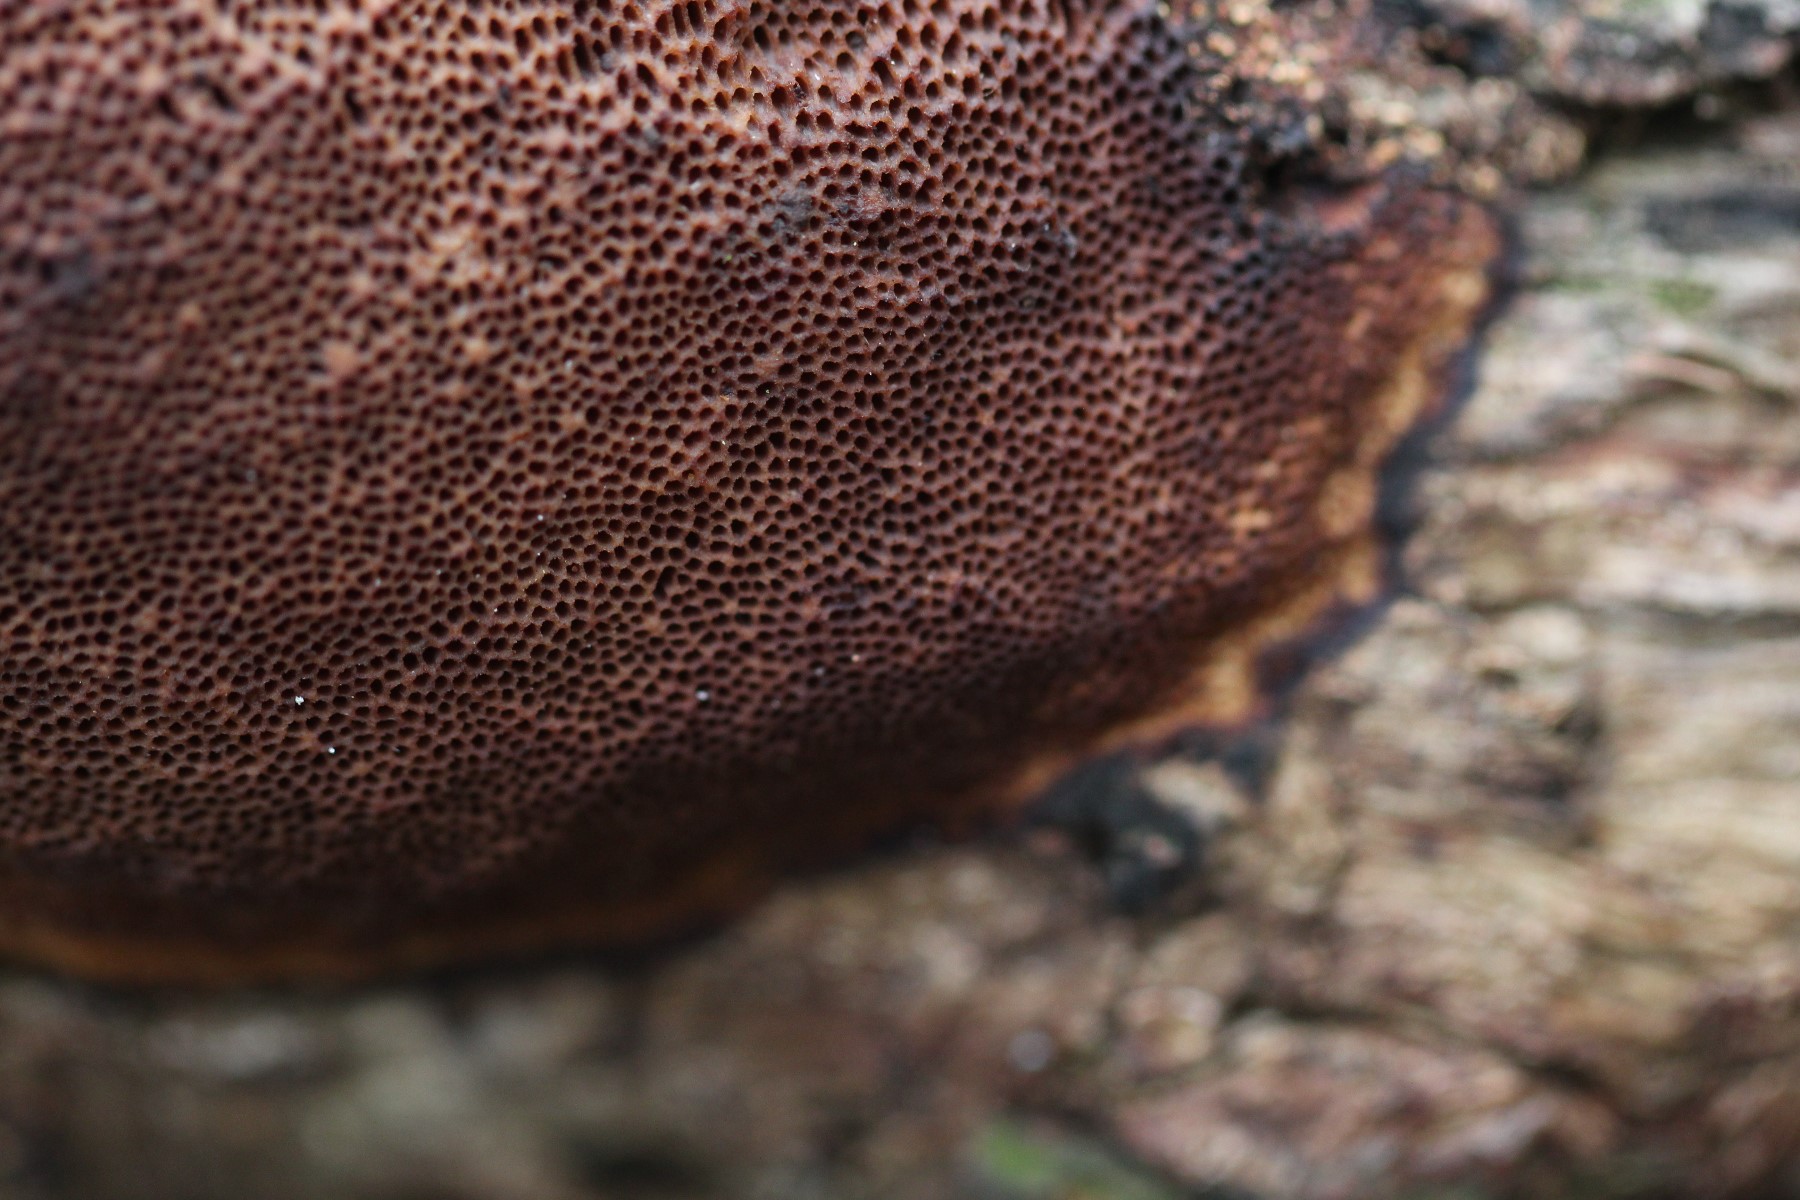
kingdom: Fungi
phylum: Basidiomycota
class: Agaricomycetes
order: Hymenochaetales
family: Hymenochaetaceae
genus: Fuscoporia
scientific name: Fuscoporia ferrea
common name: skorpe-ildporesvamp
